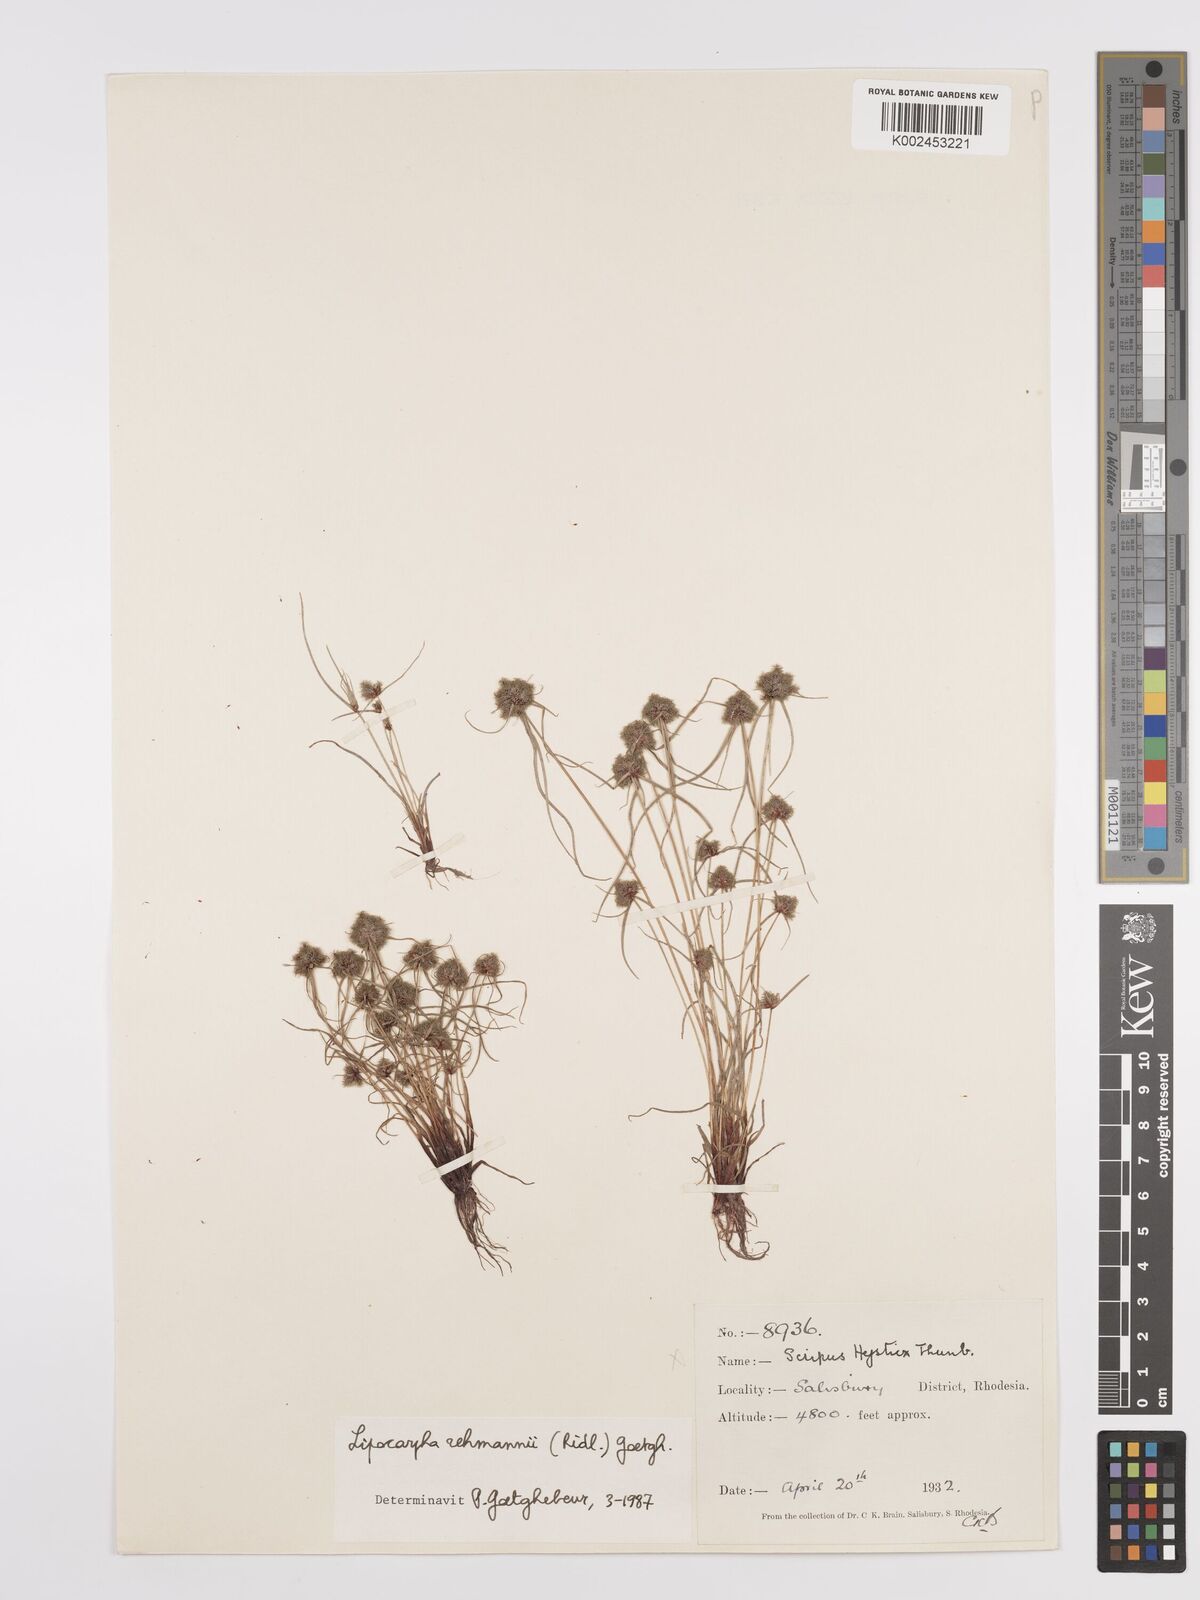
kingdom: Plantae
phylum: Tracheophyta
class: Liliopsida
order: Poales
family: Cyperaceae
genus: Cyperus
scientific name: Cyperus sanguinolentus
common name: Purpleglume flatsedge
